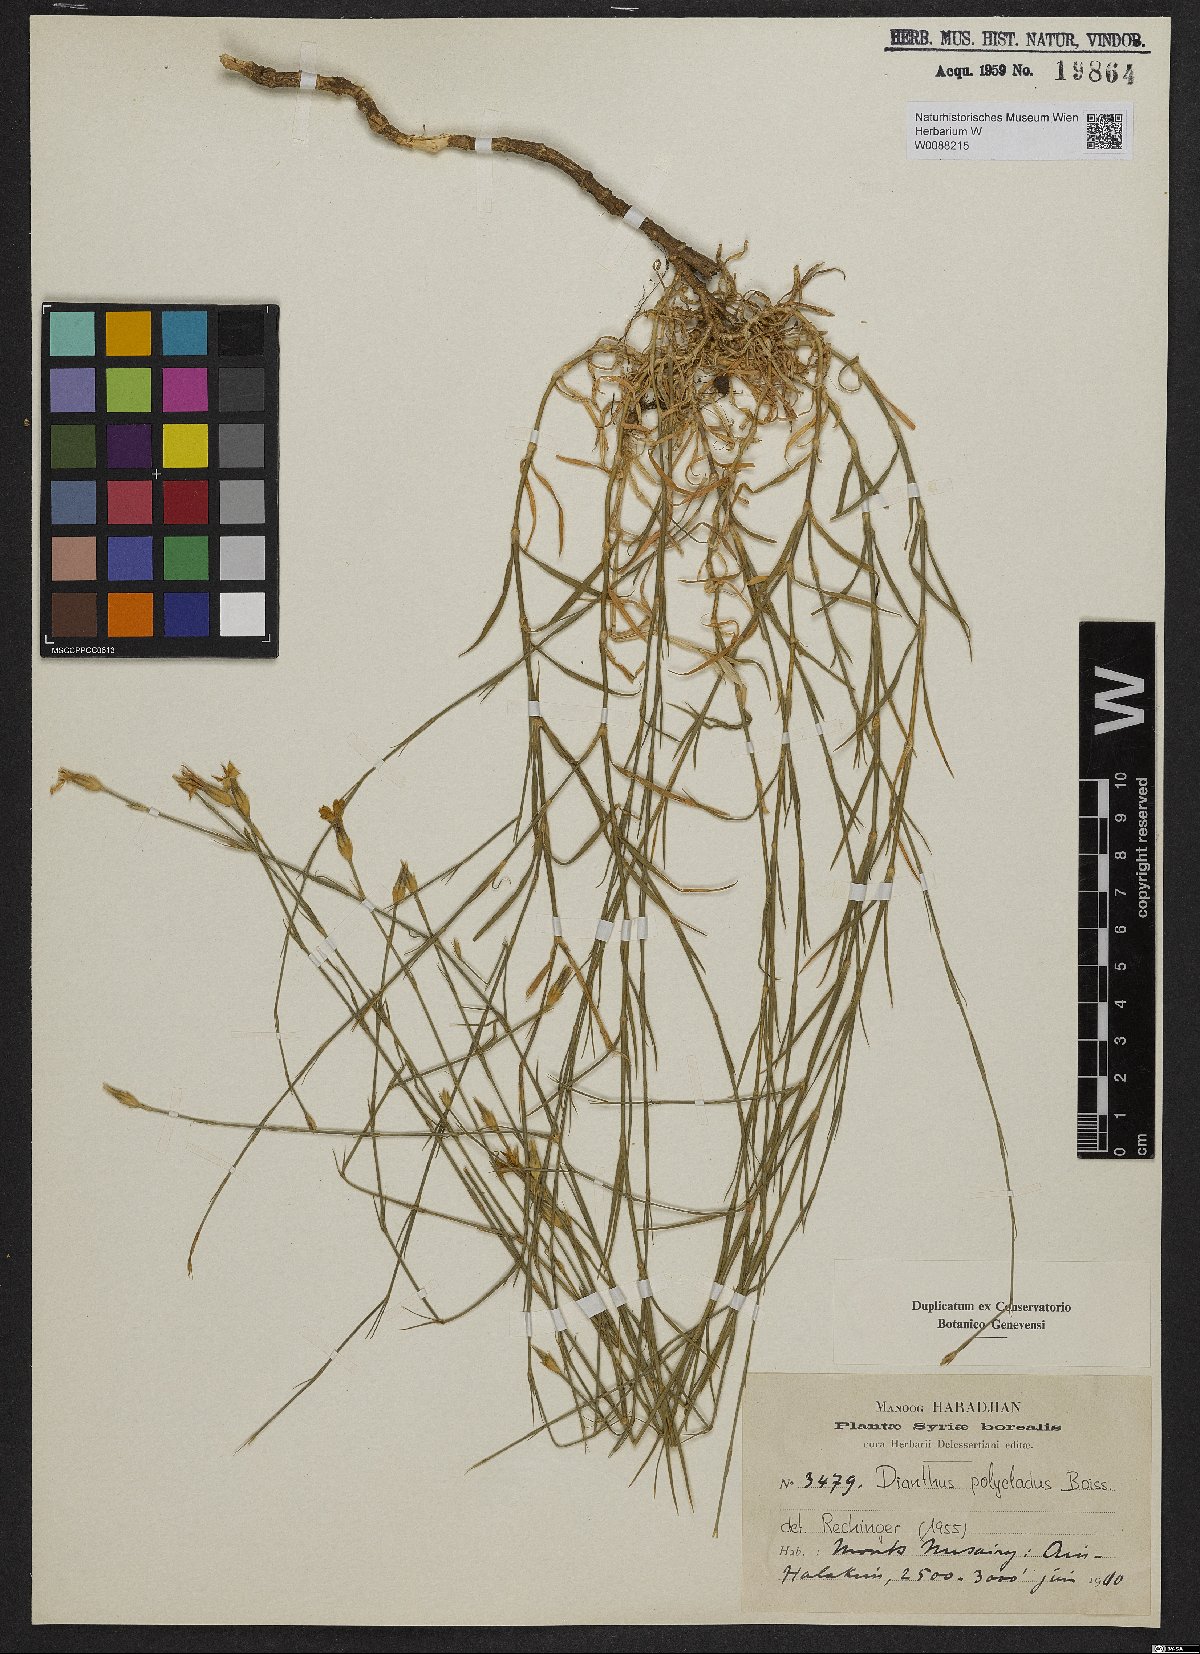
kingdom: Plantae
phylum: Tracheophyta
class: Magnoliopsida
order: Caryophyllales
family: Caryophyllaceae
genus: Dianthus
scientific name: Dianthus strictus
